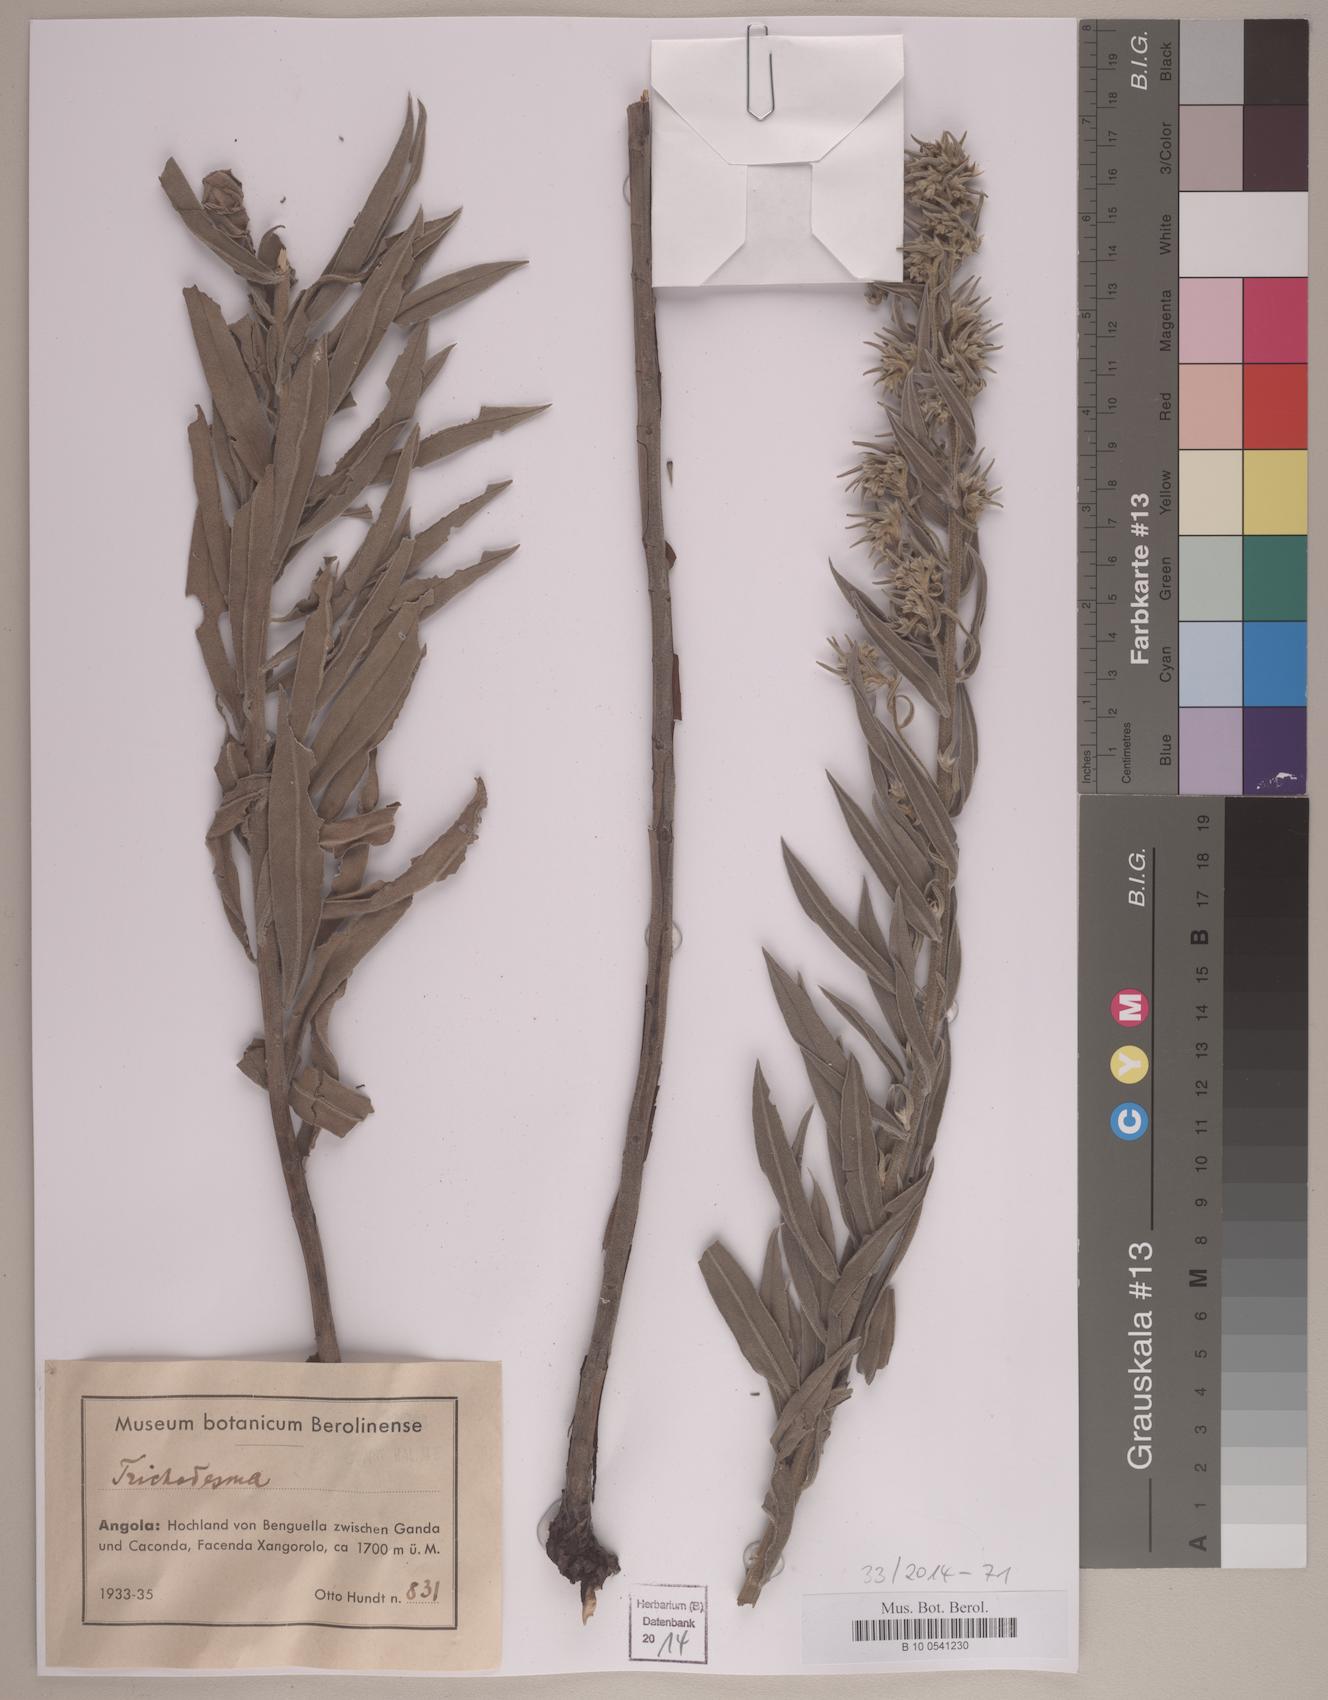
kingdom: Plantae
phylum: Tracheophyta
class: Magnoliopsida
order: Boraginales
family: Boraginaceae
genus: Trichodesma
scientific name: Trichodesma
